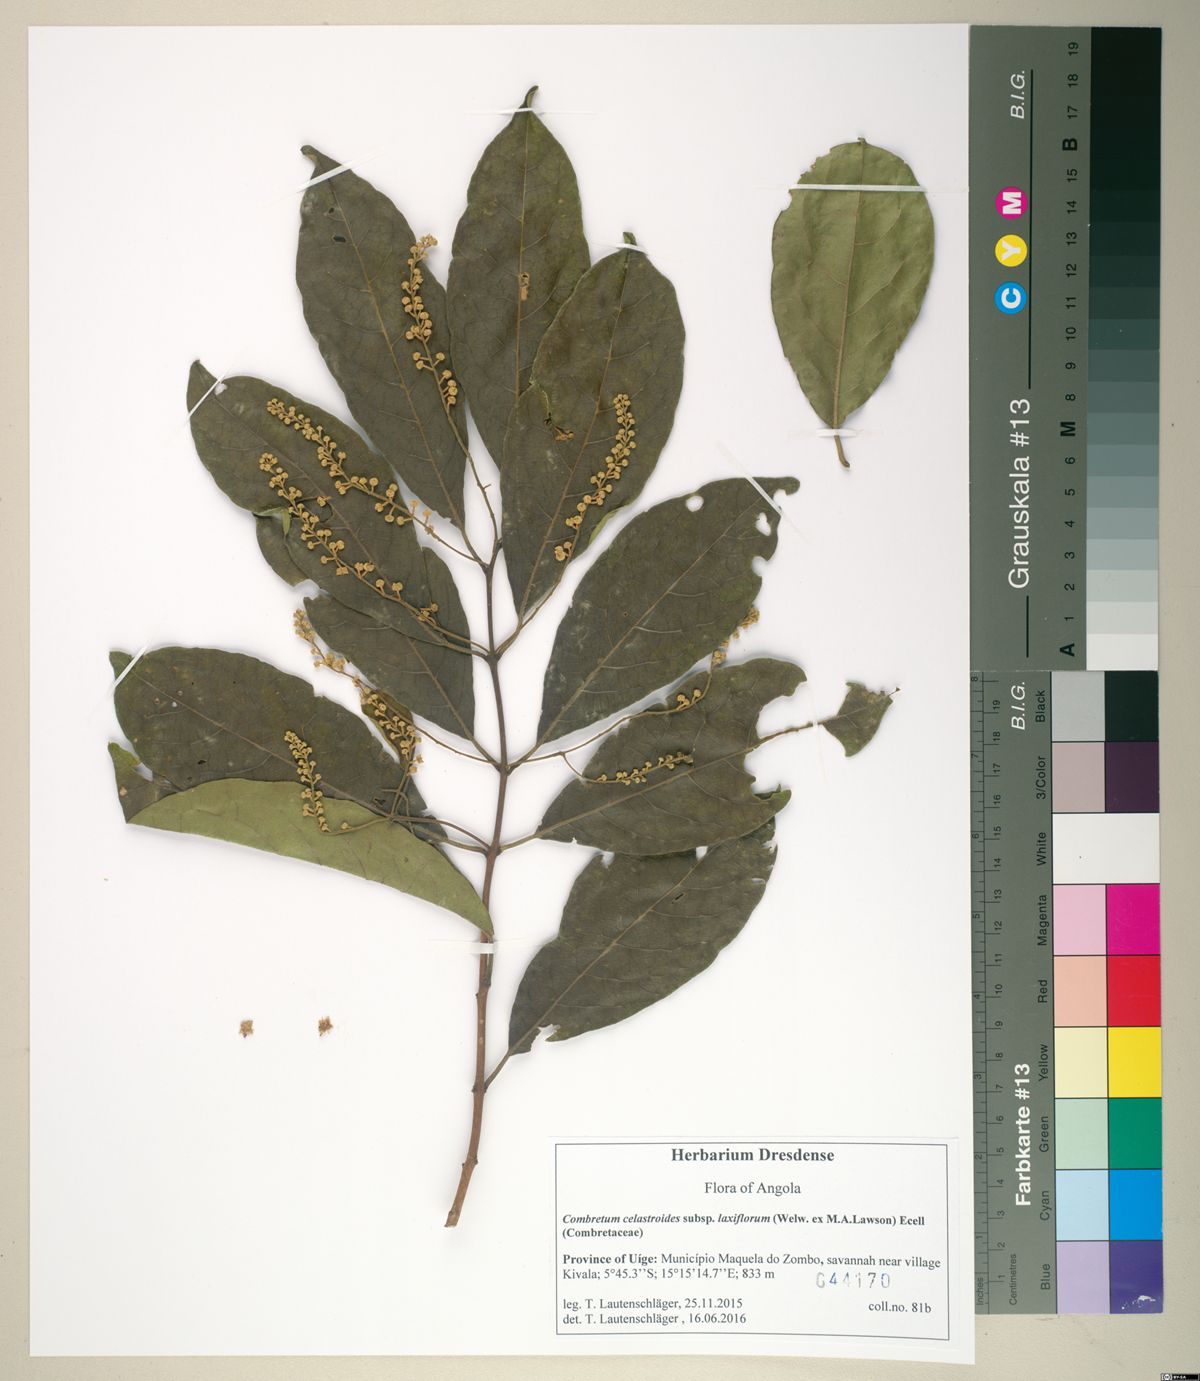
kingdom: Plantae
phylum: Tracheophyta
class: Magnoliopsida
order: Myrtales
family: Combretaceae
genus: Combretum
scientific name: Combretum celastroides
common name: Jesse-bush combretum
